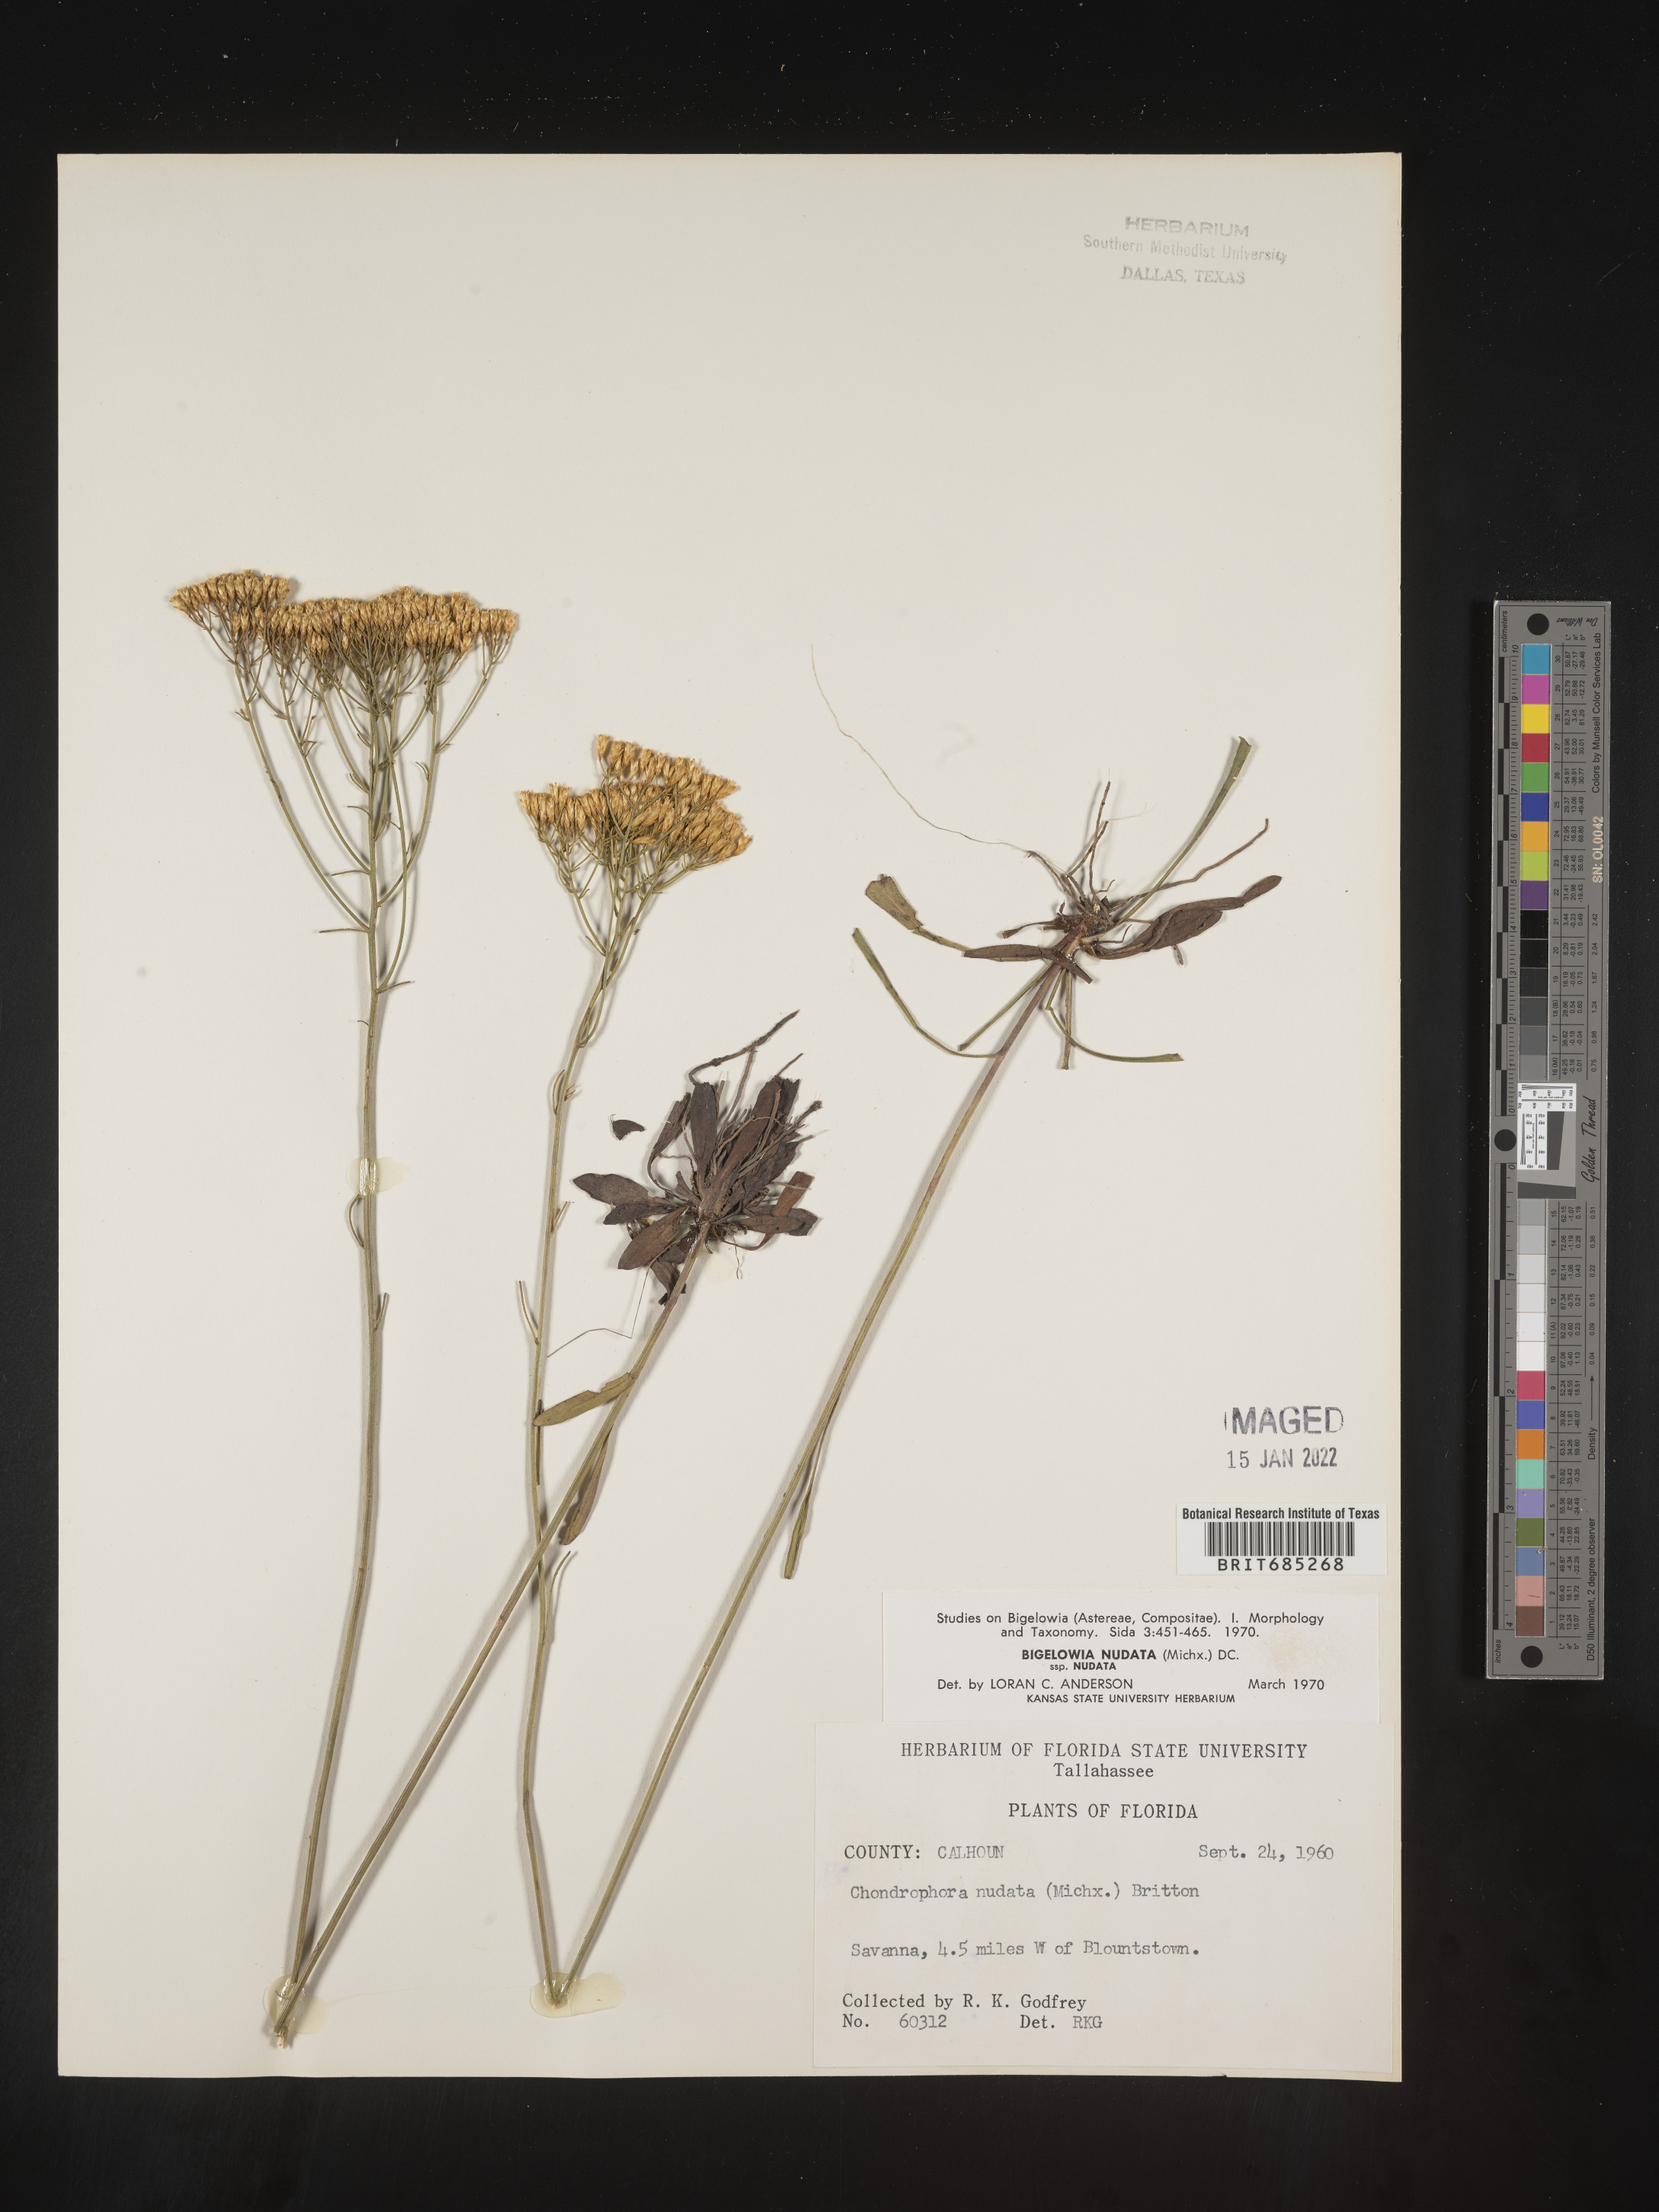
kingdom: Plantae
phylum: Tracheophyta
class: Magnoliopsida
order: Asterales
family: Asteraceae
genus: Bigelowia
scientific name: Bigelowia nudata
